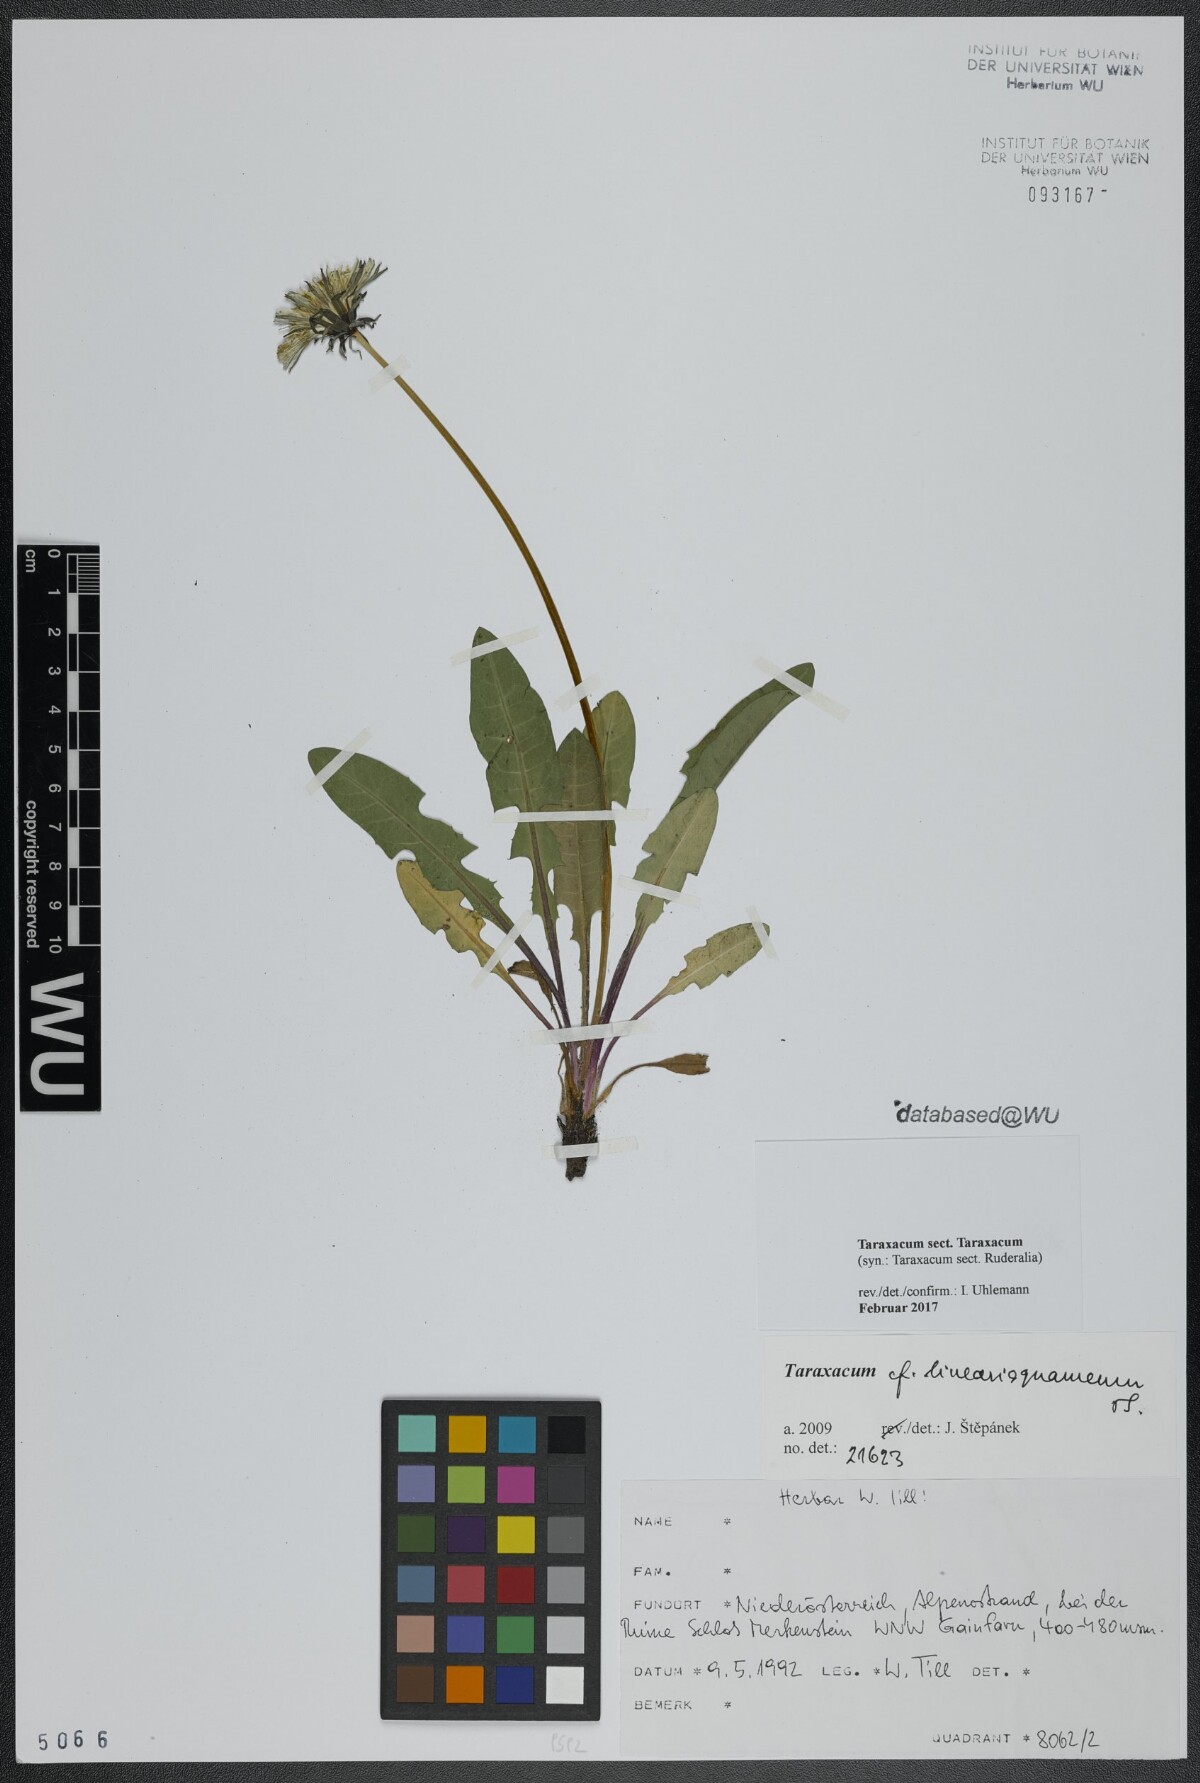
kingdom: Plantae
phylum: Tracheophyta
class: Magnoliopsida
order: Asterales
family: Asteraceae
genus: Taraxacum
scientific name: Taraxacum
